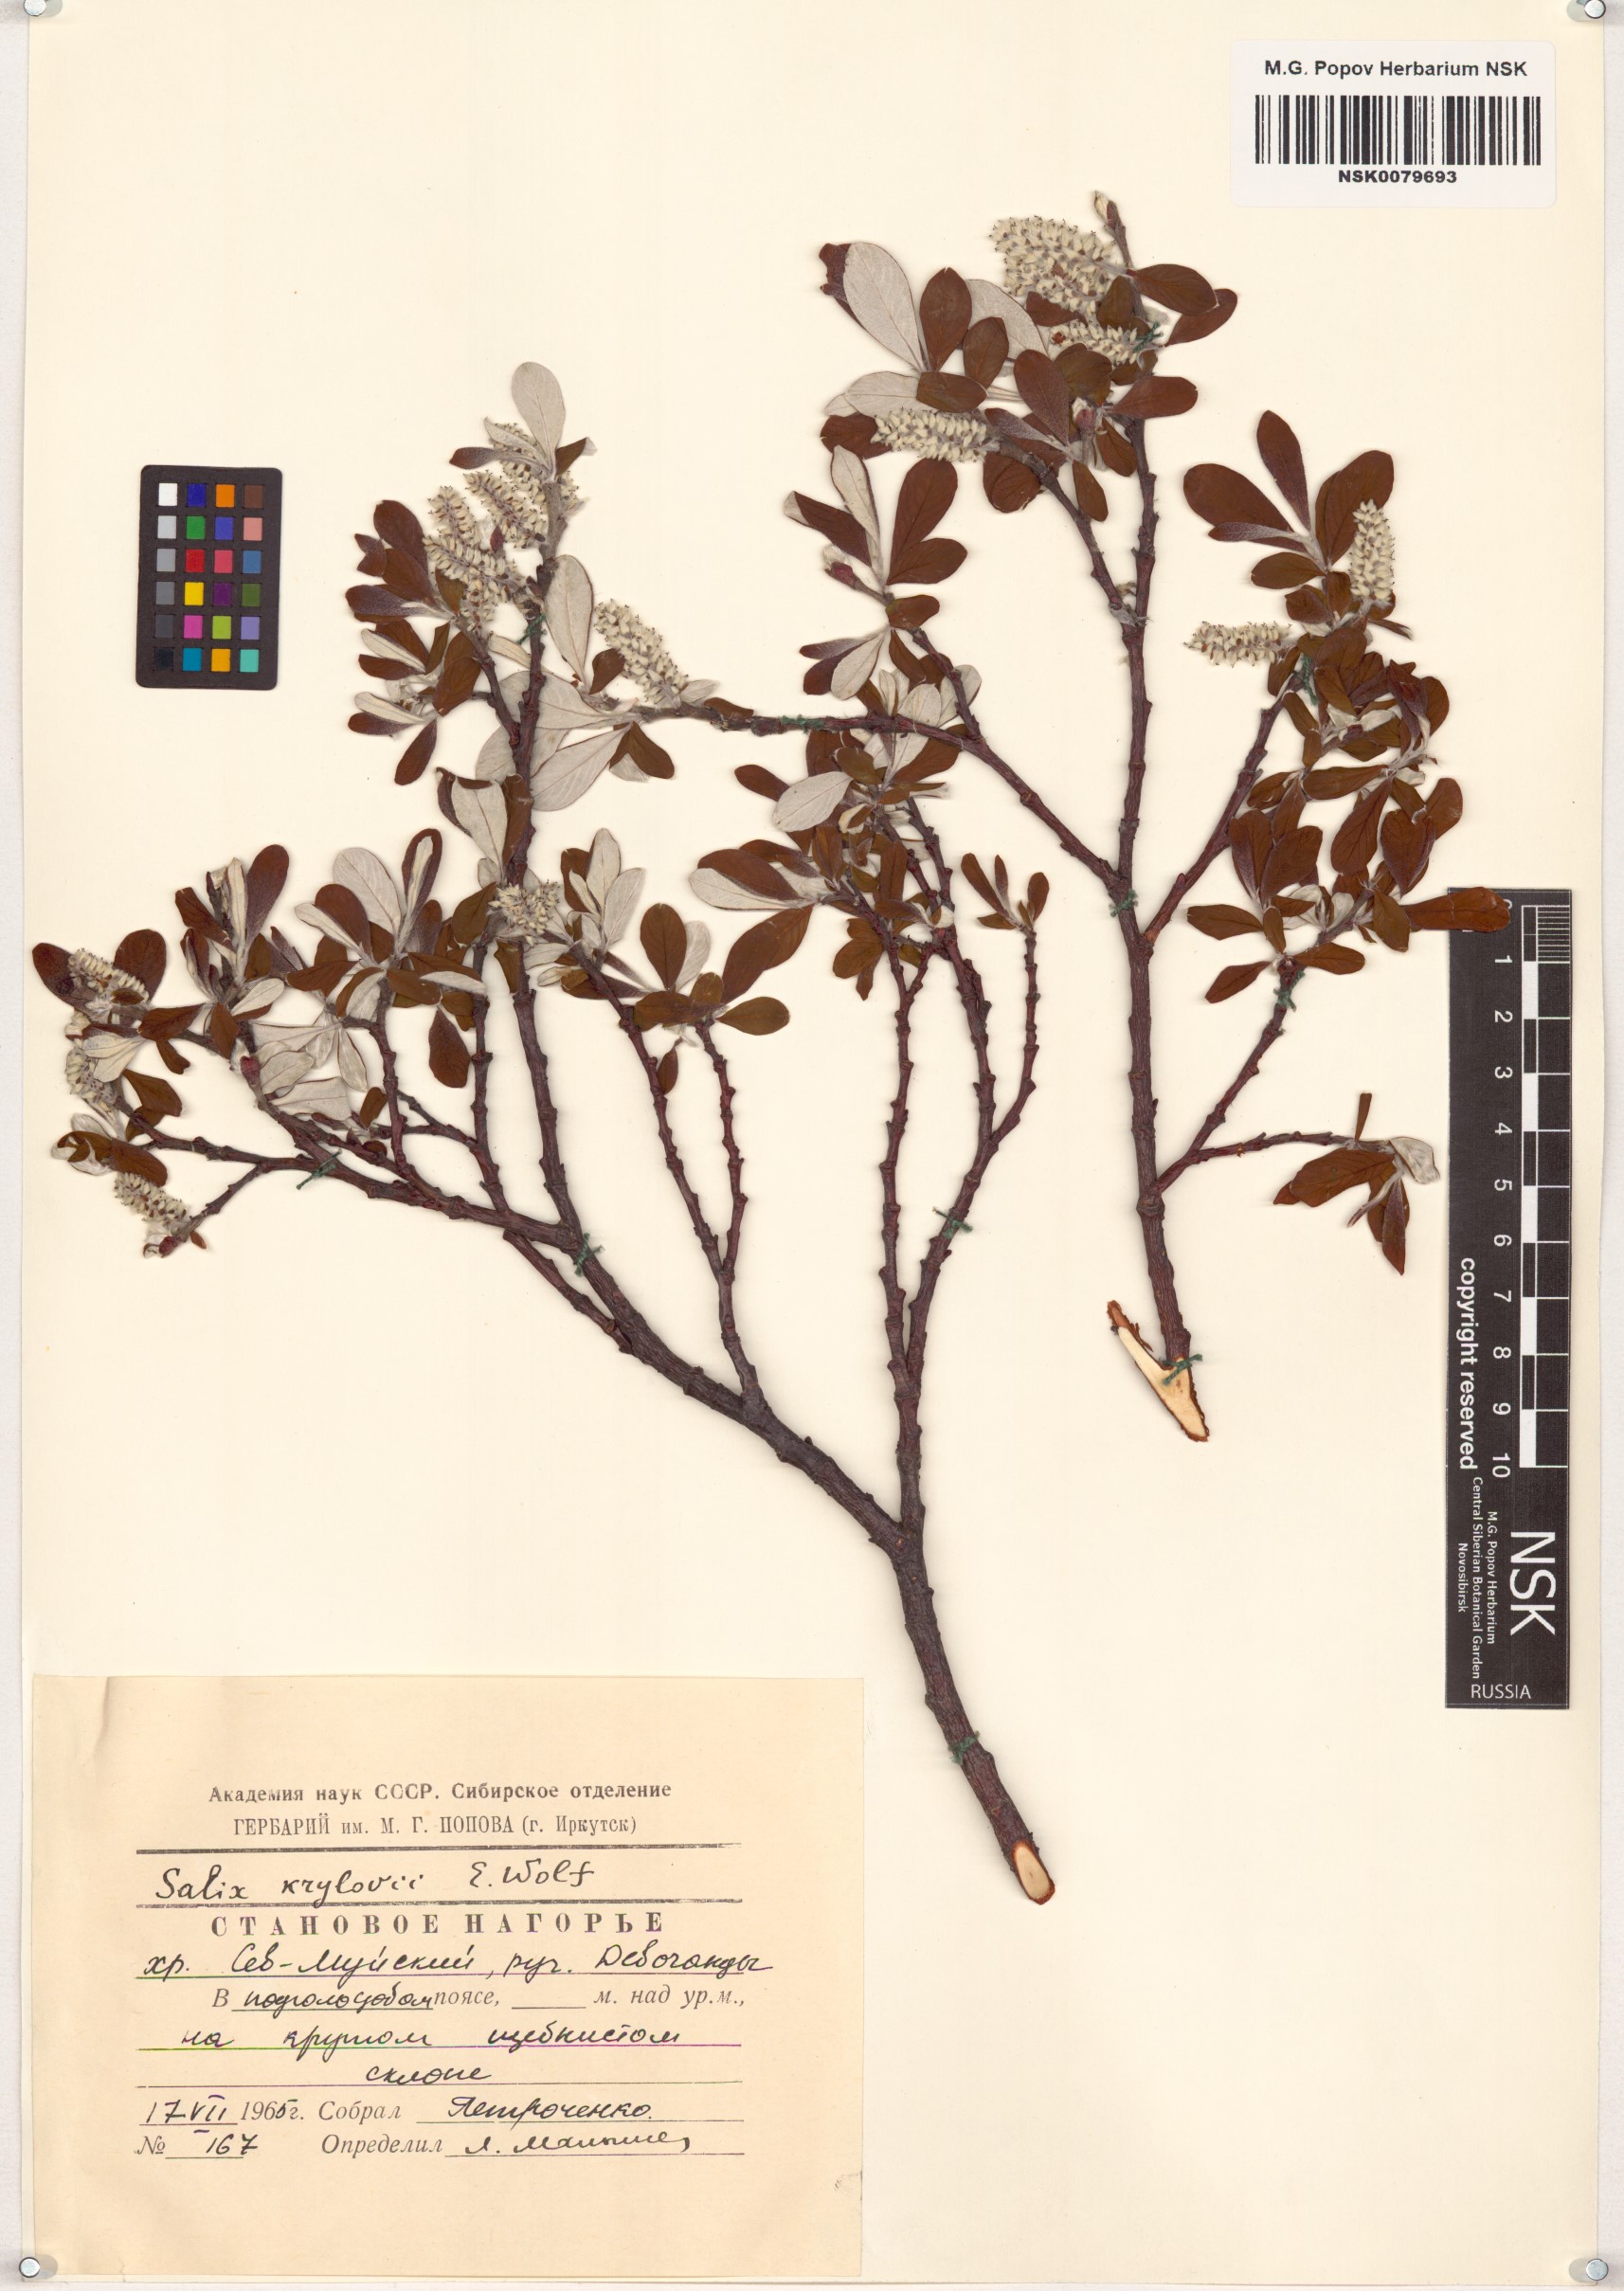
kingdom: Plantae
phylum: Tracheophyta
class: Magnoliopsida
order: Malpighiales
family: Salicaceae
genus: Salix
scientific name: Salix krylovii
